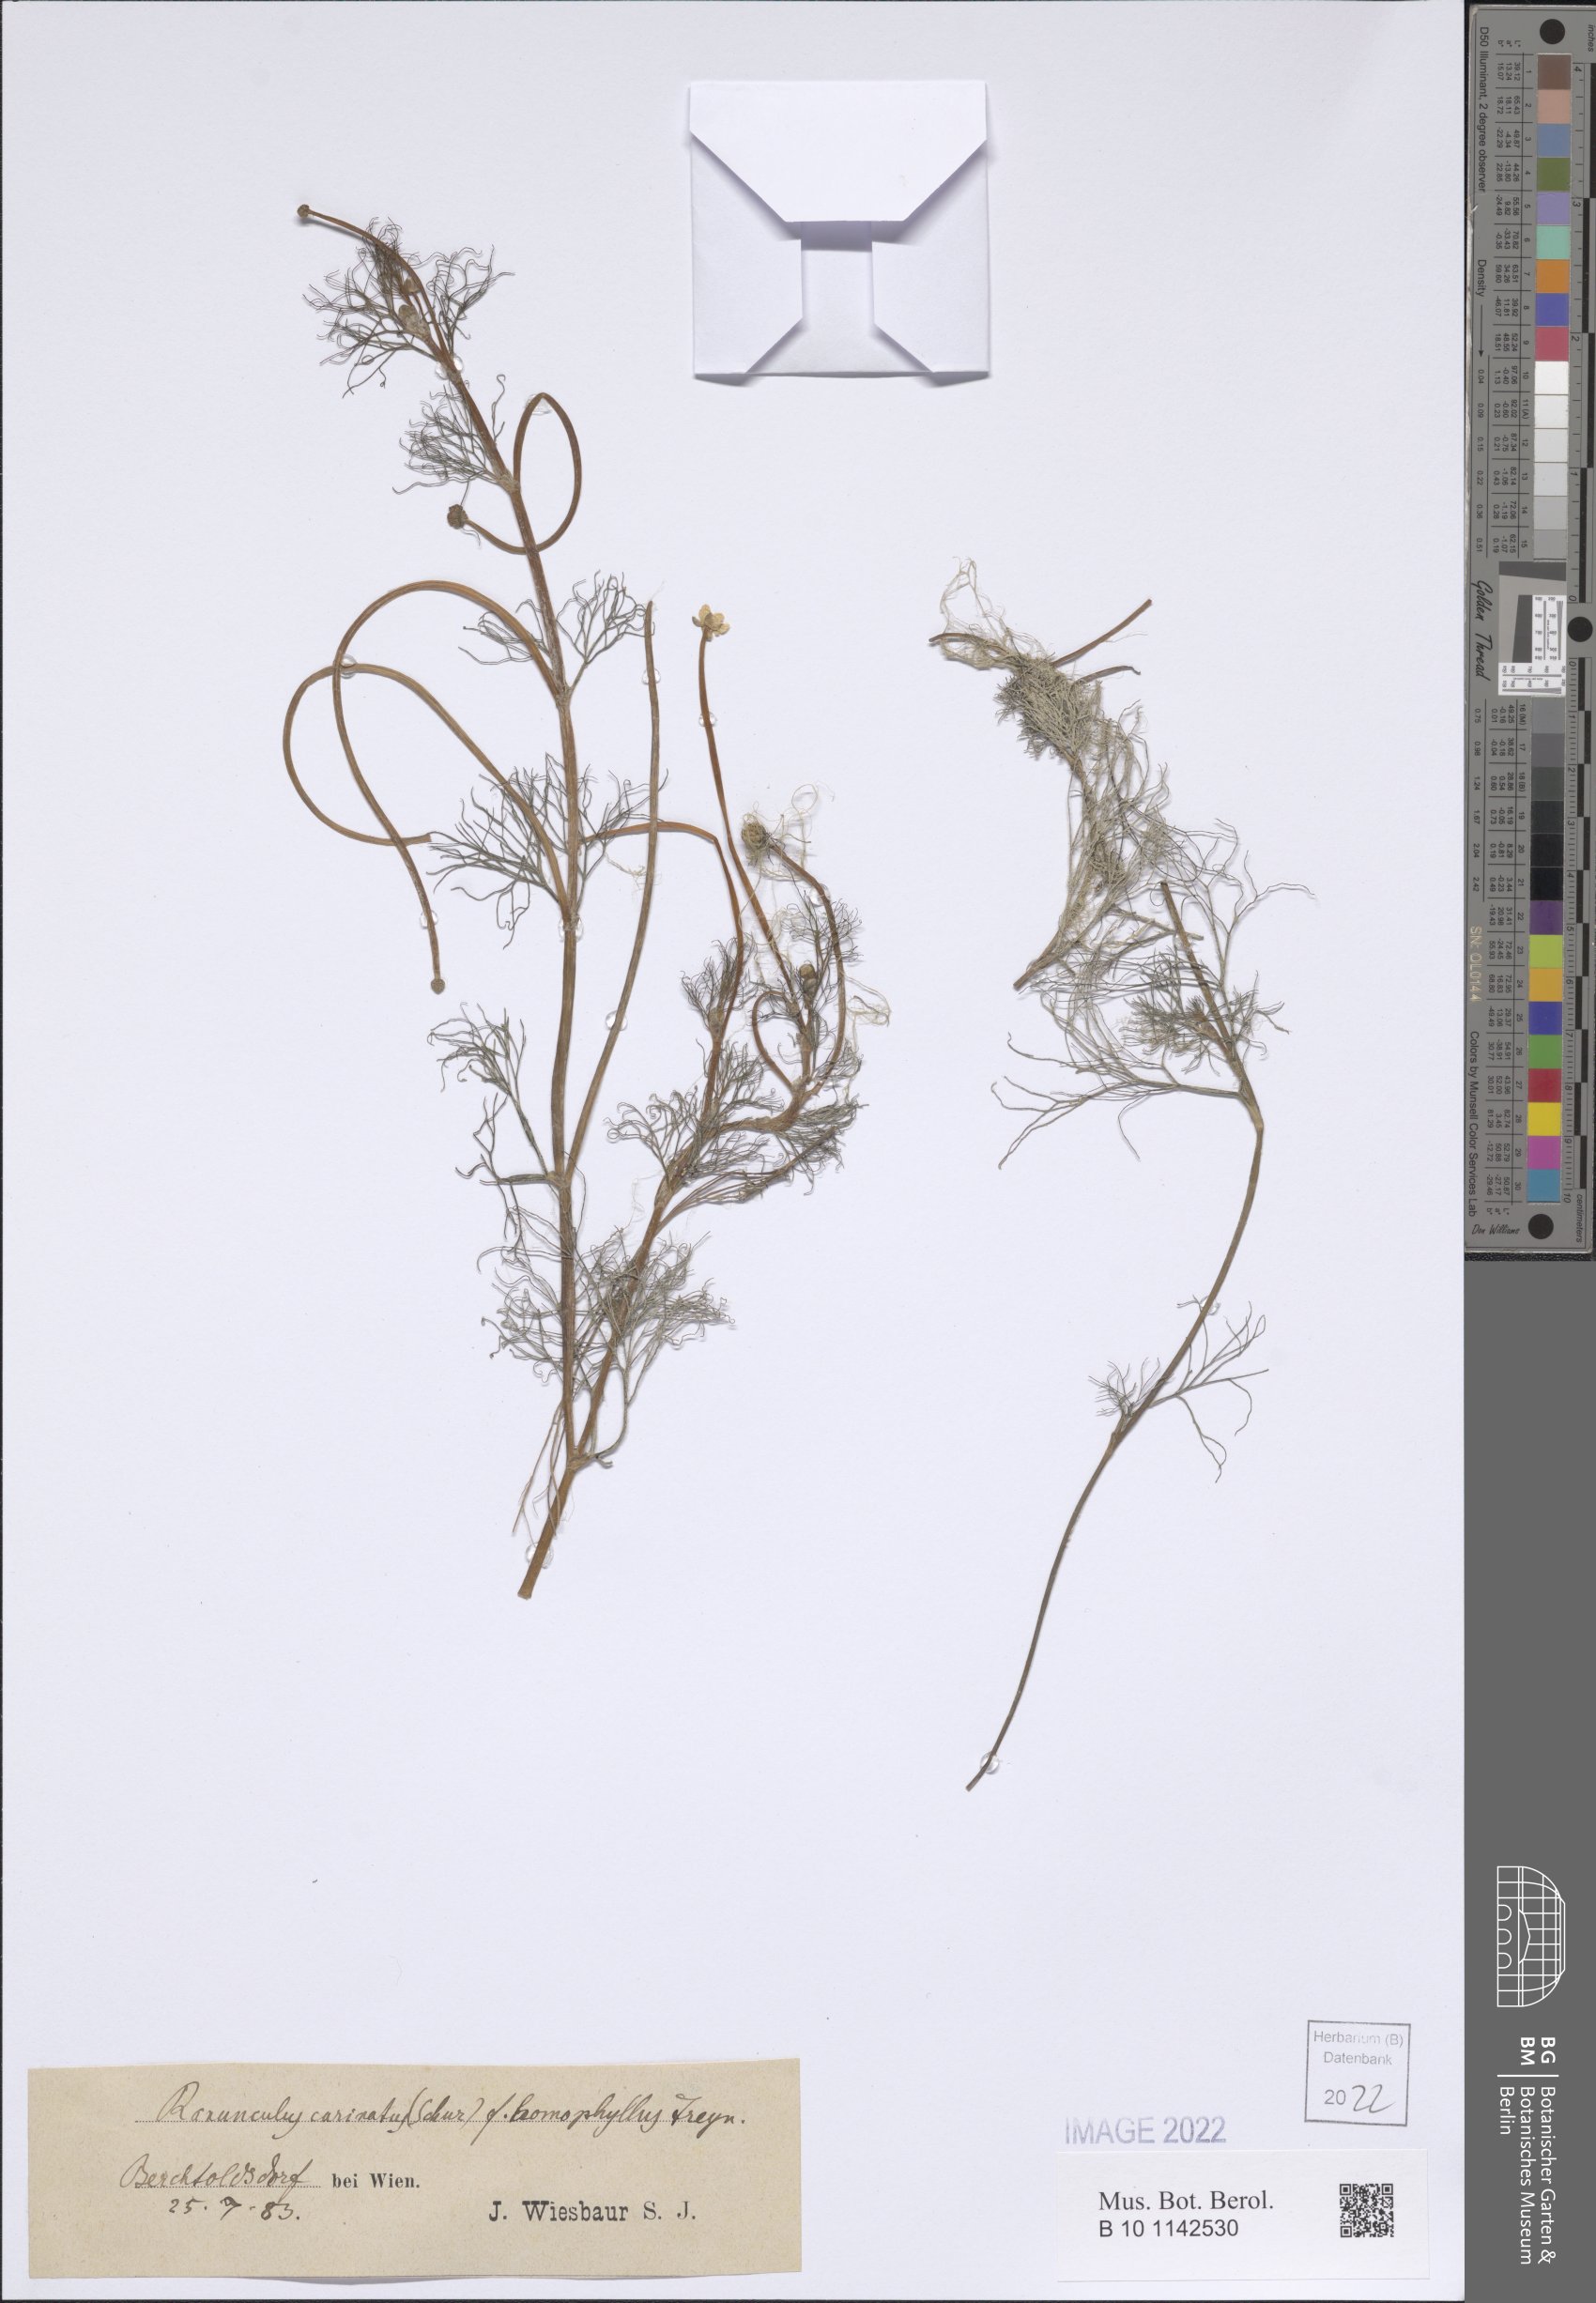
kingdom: Plantae
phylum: Tracheophyta
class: Magnoliopsida
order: Ranunculales
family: Ranunculaceae
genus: Ranunculus
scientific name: Ranunculus peltatus
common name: Pond water-crowfoot
